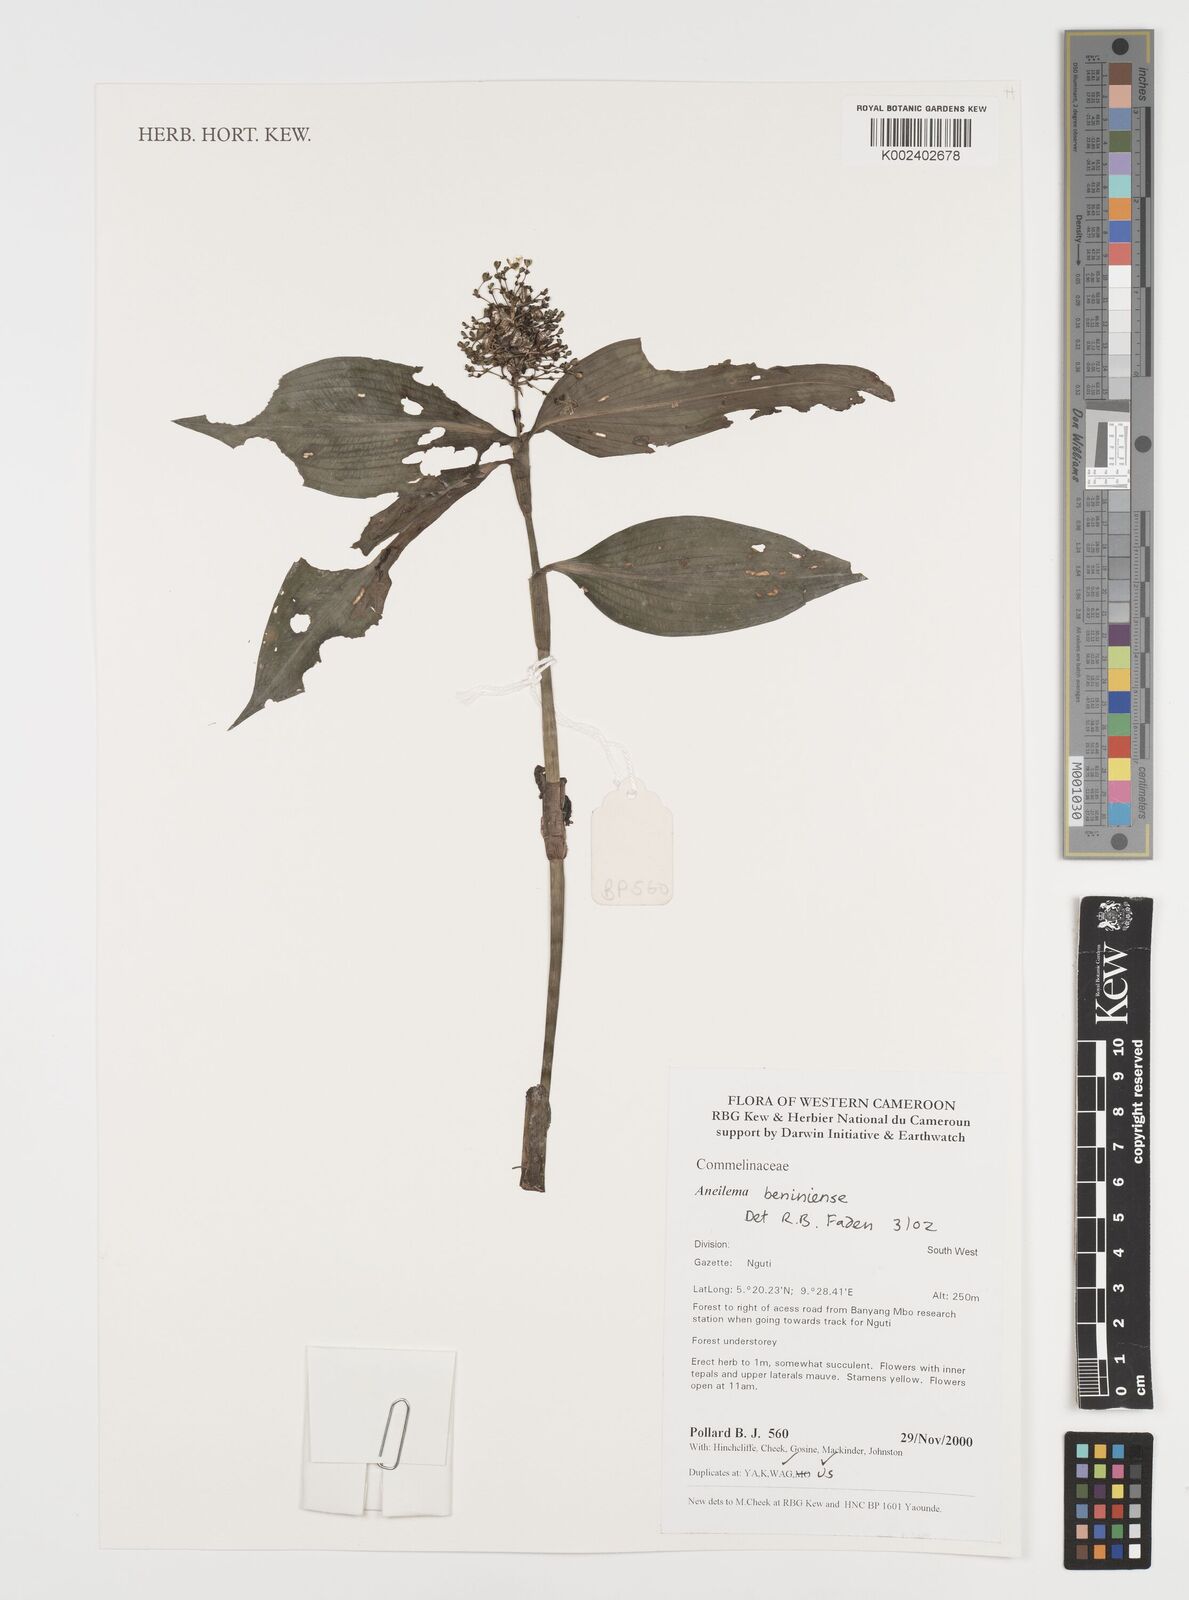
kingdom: Plantae
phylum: Tracheophyta
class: Liliopsida
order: Commelinales
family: Commelinaceae
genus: Aneilema
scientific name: Aneilema beniniense
